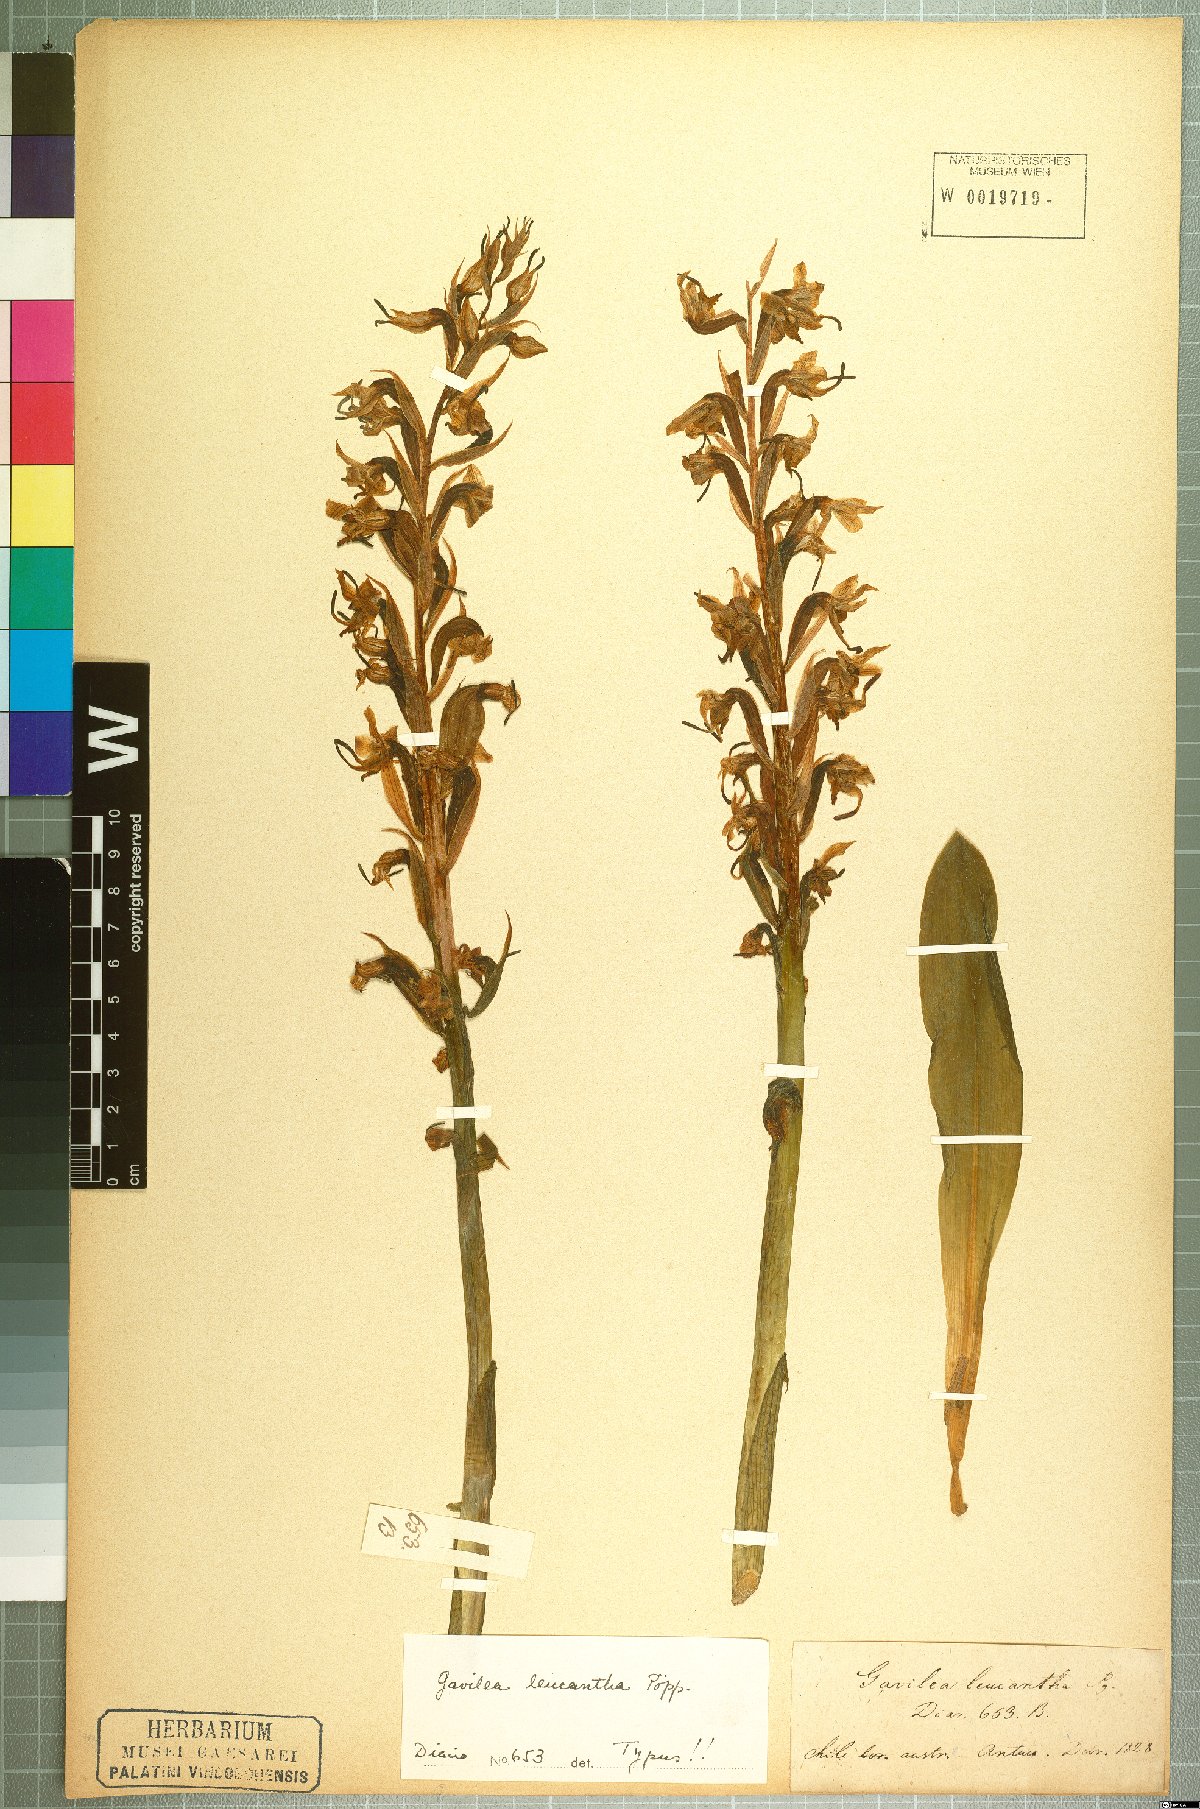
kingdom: Plantae
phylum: Tracheophyta
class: Liliopsida
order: Asparagales
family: Orchidaceae
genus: Gavilea
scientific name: Gavilea venosa
